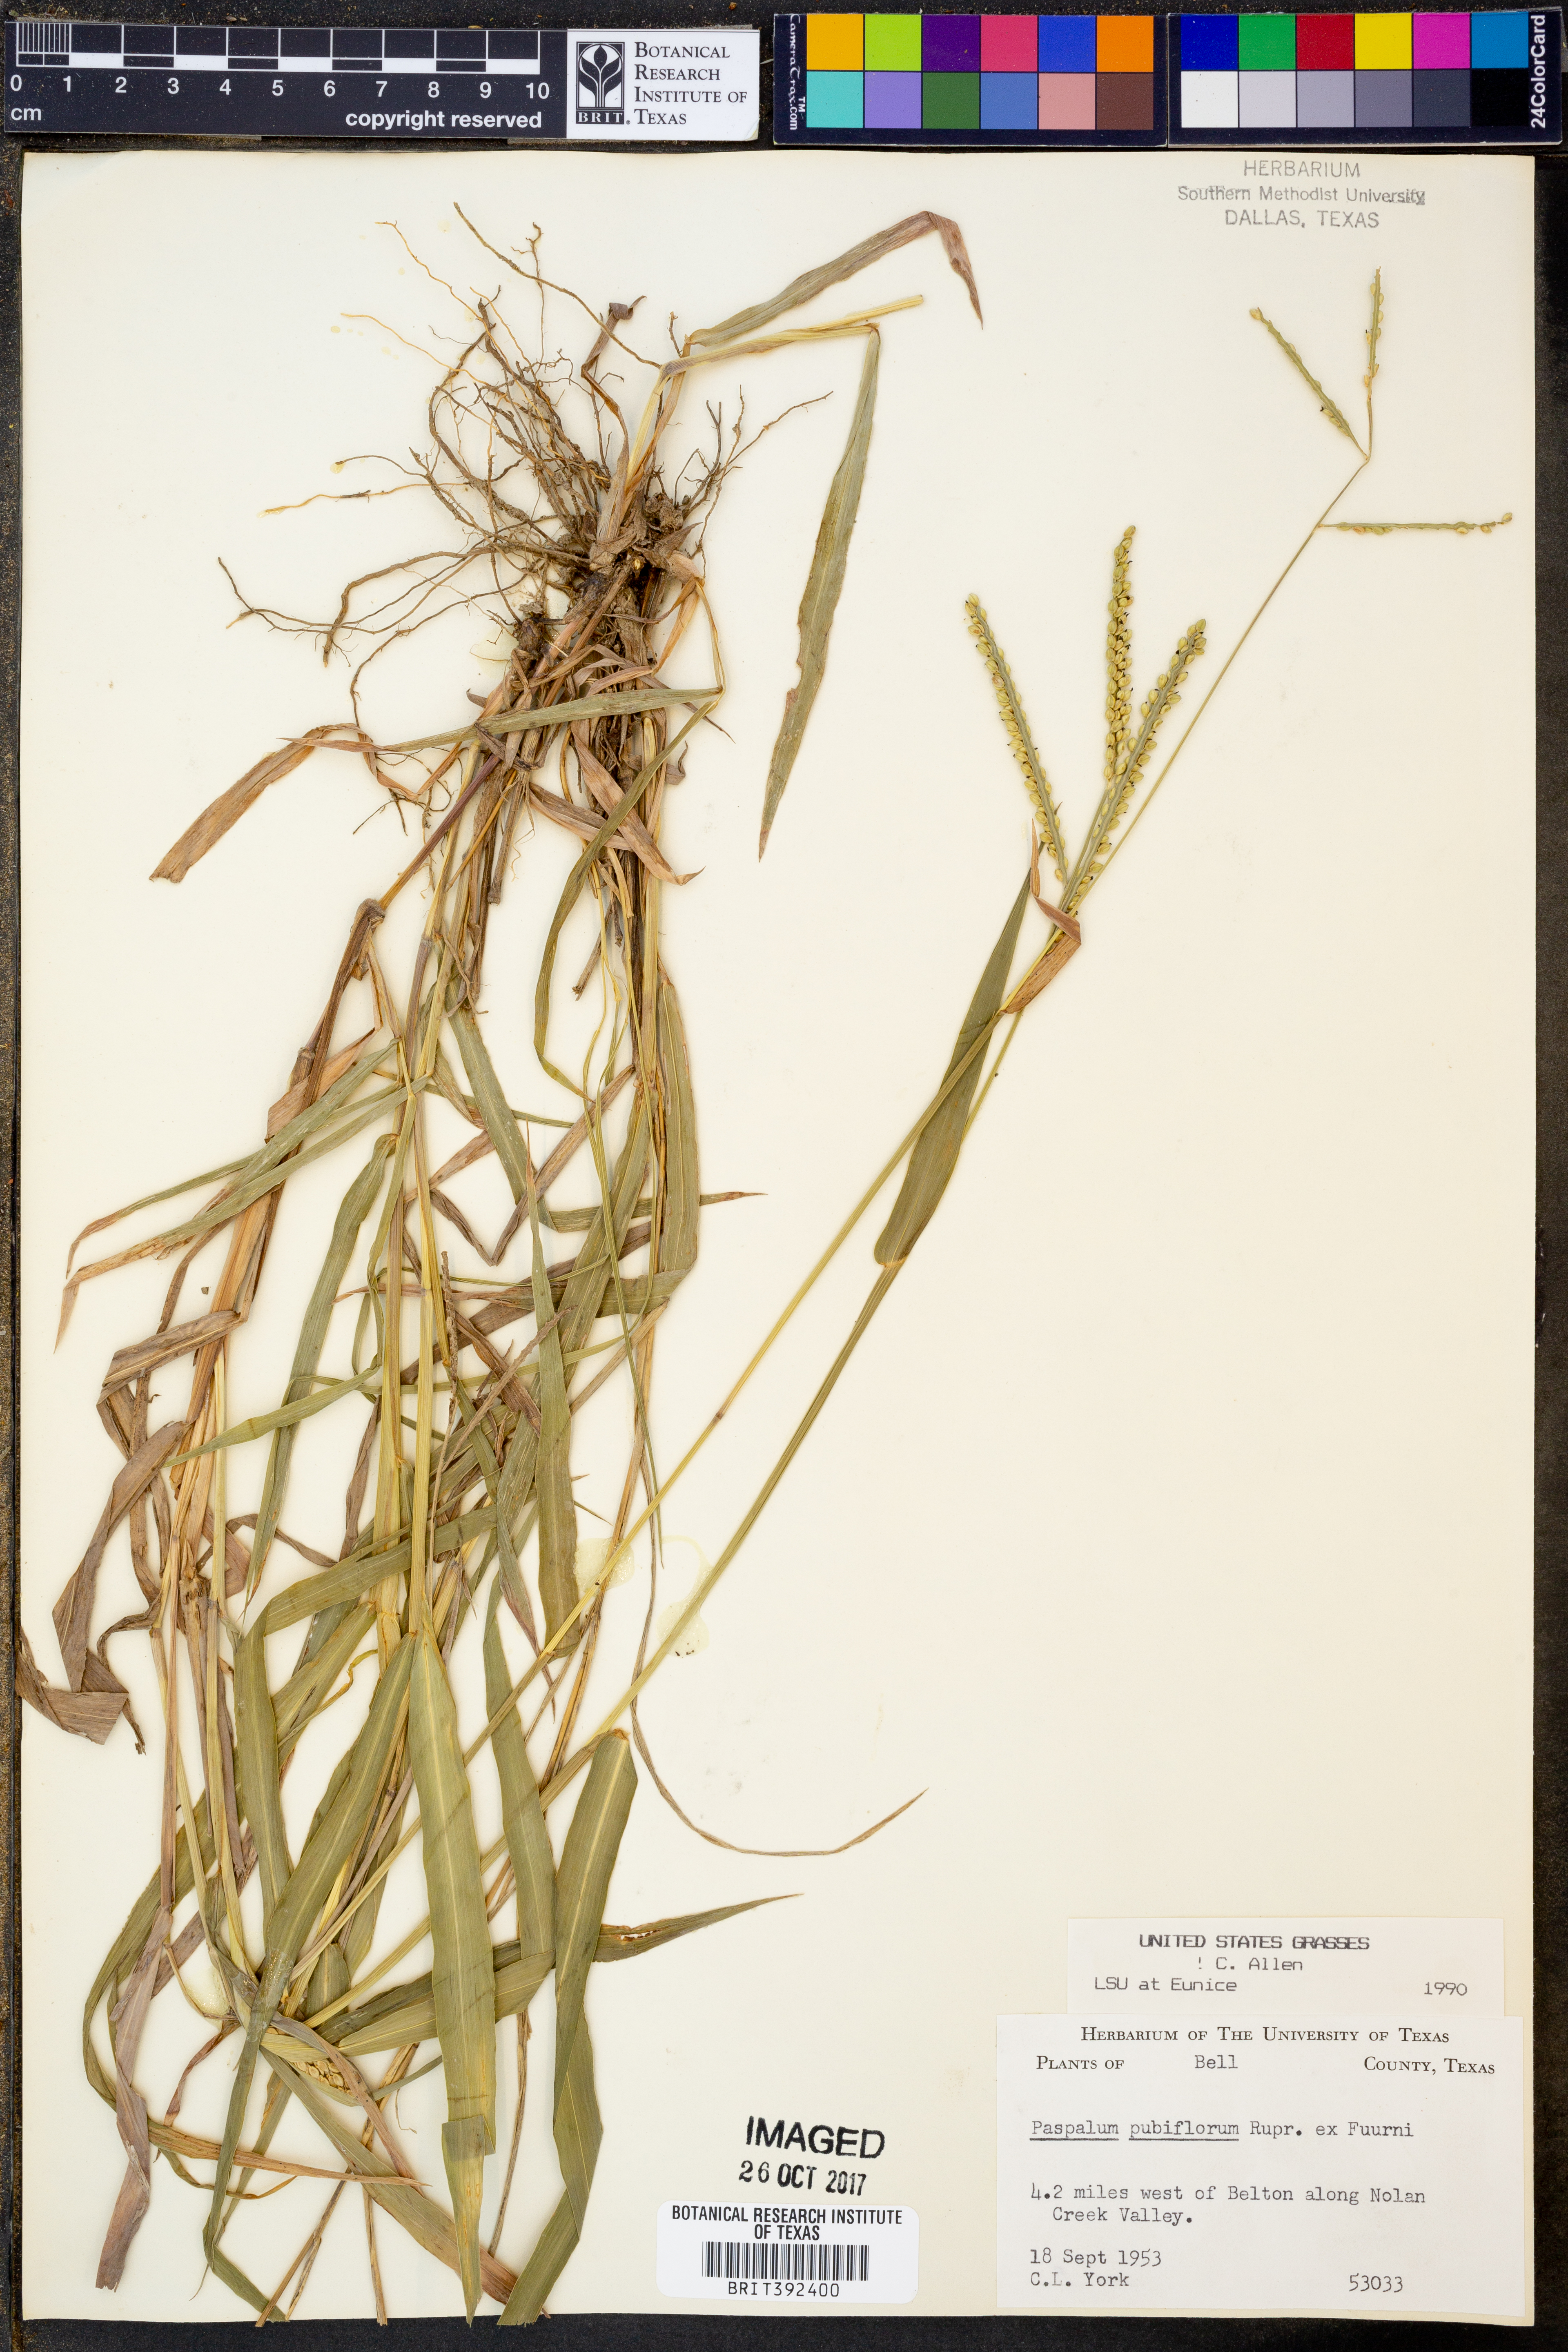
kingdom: Plantae
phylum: Tracheophyta
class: Liliopsida
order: Poales
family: Poaceae
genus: Paspalum
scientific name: Paspalum pubiflorum
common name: Hairy-seed paspalum
